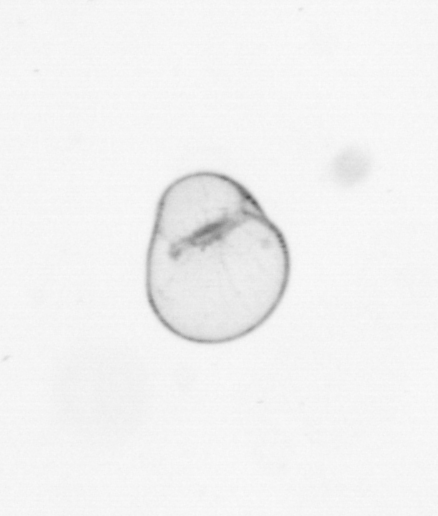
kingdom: Chromista
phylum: Myzozoa
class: Dinophyceae
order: Noctilucales
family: Noctilucaceae
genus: Noctiluca
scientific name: Noctiluca scintillans
